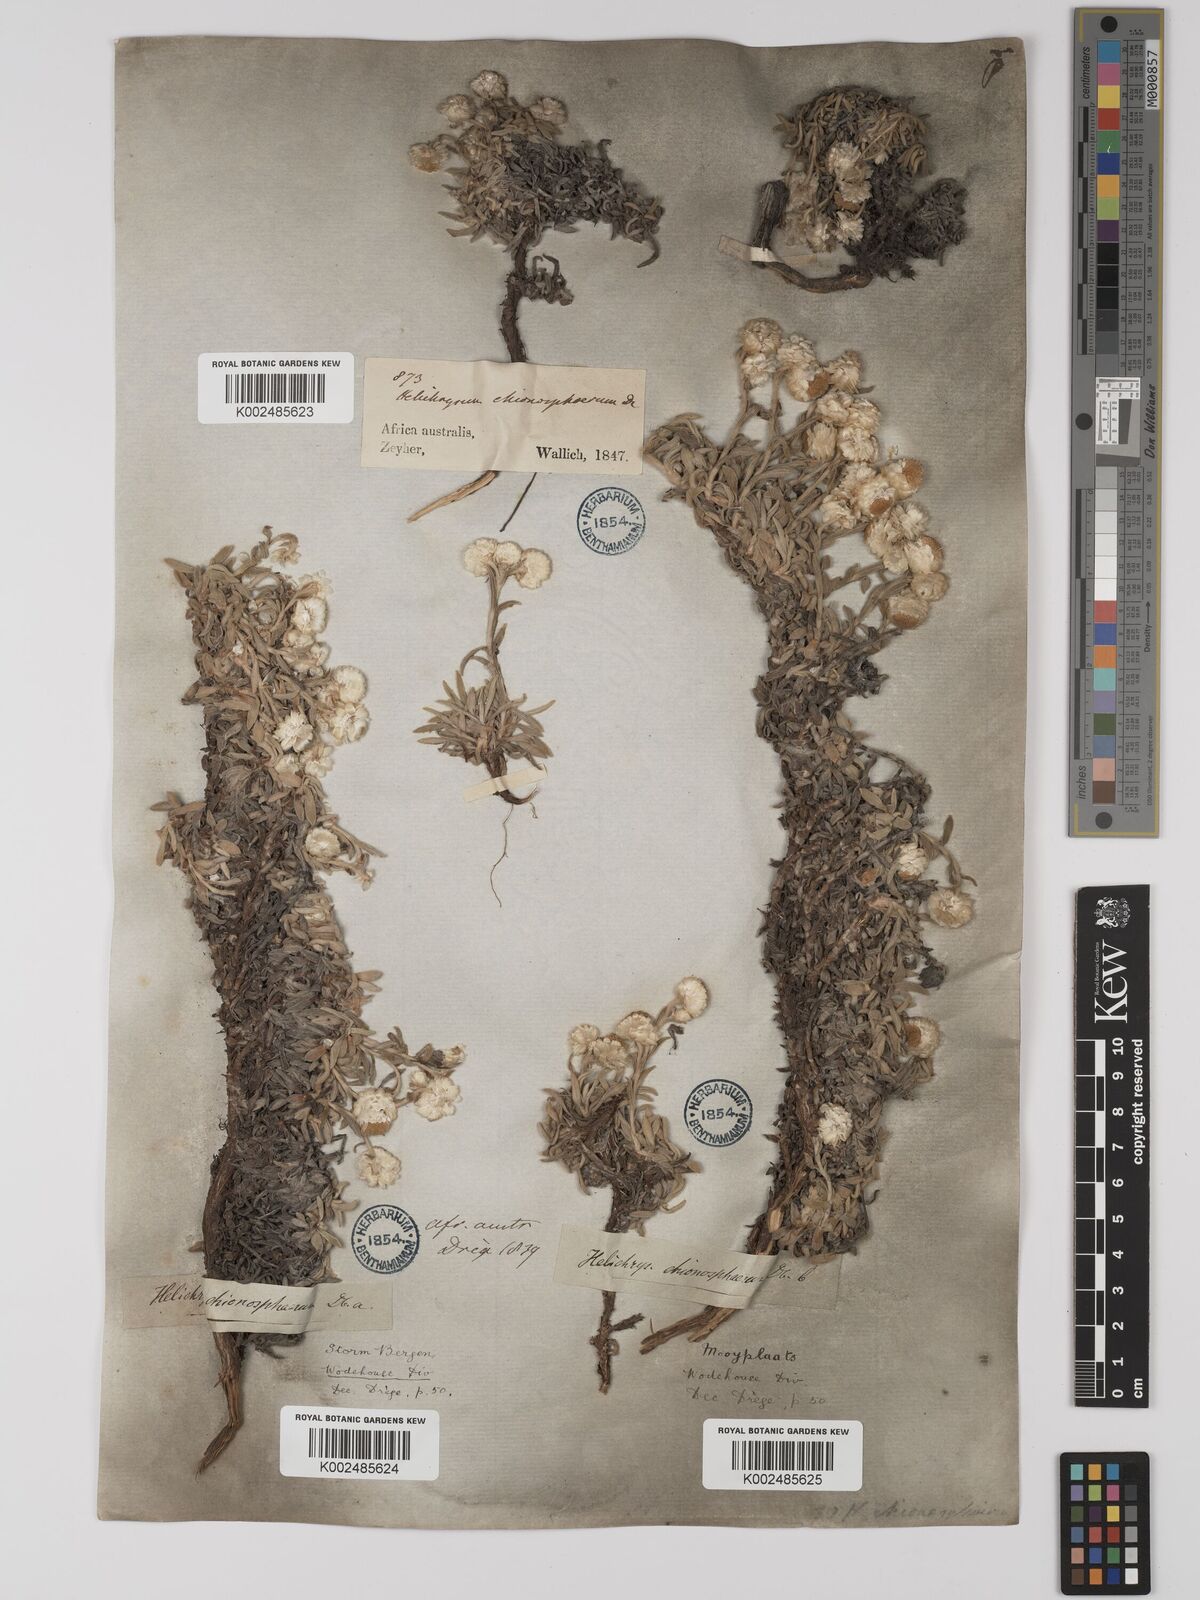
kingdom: Plantae
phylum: Tracheophyta
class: Magnoliopsida
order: Asterales
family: Asteraceae
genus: Helichrysum
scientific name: Helichrysum chionosphaerum
